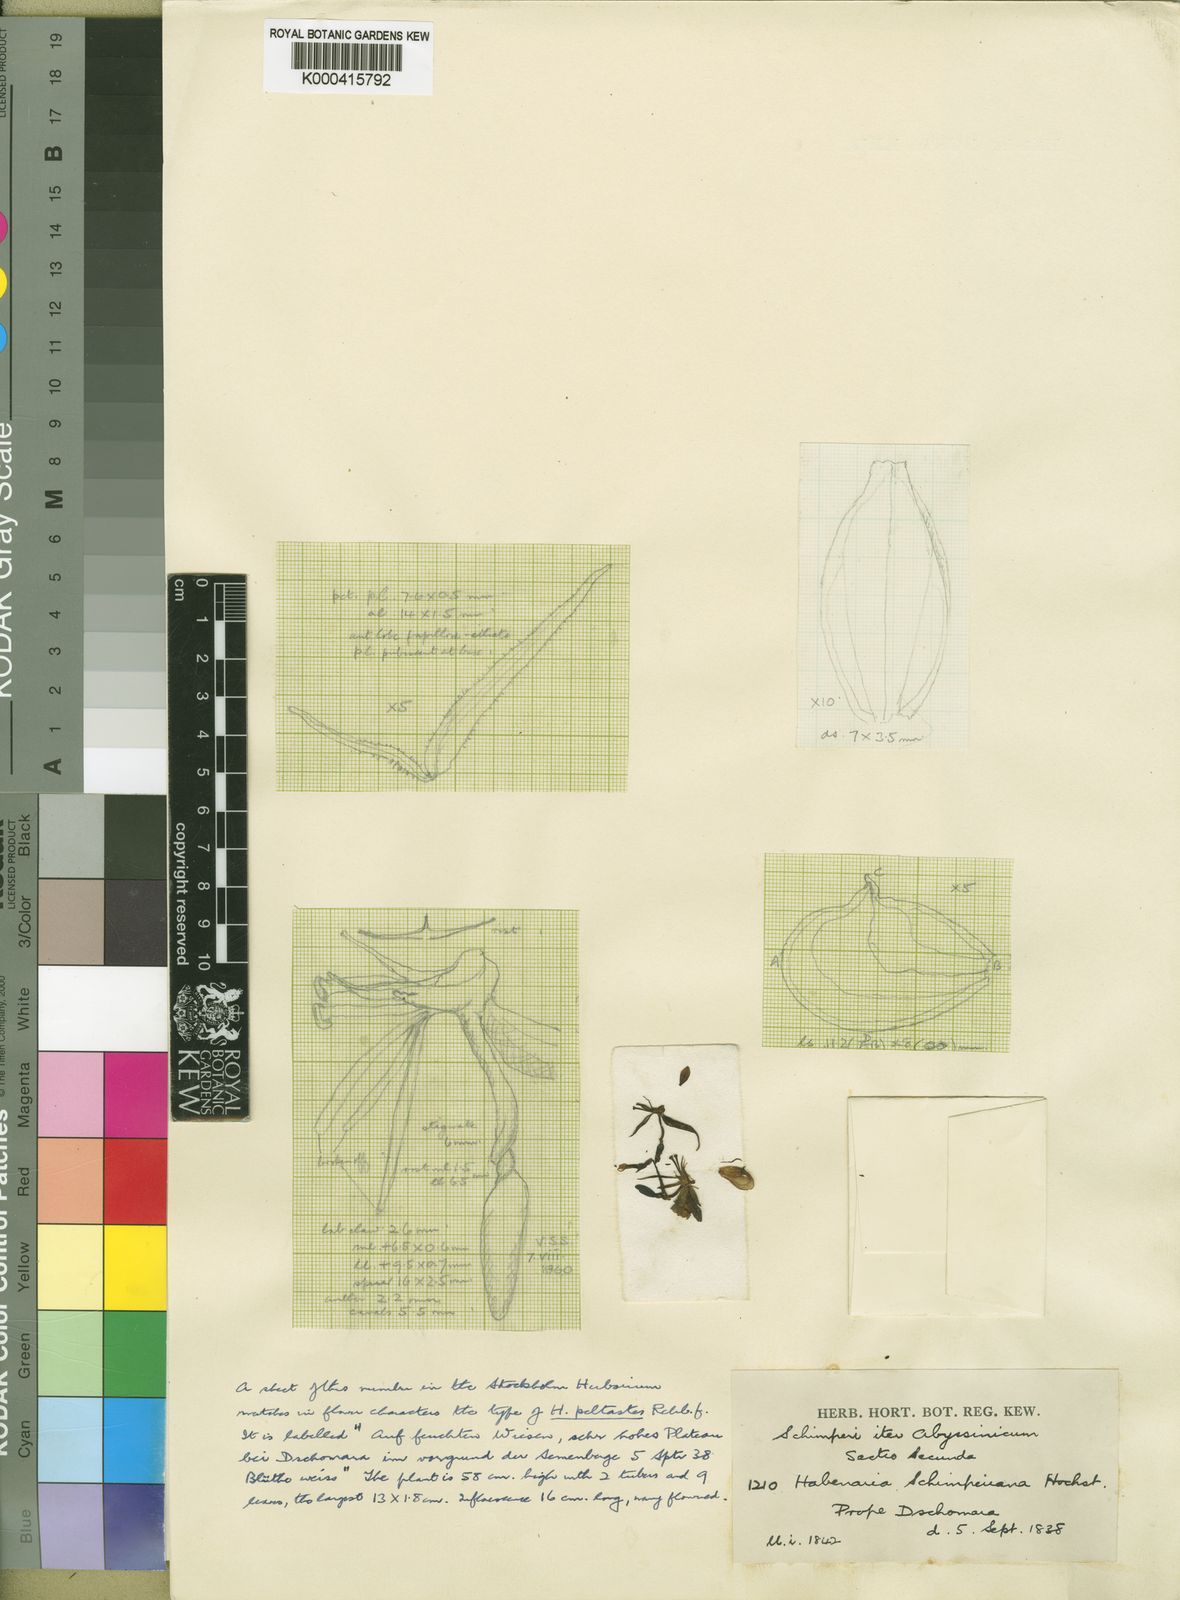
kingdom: Plantae
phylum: Tracheophyta
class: Liliopsida
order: Asparagales
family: Orchidaceae
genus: Habenaria
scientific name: Habenaria schimperiana
